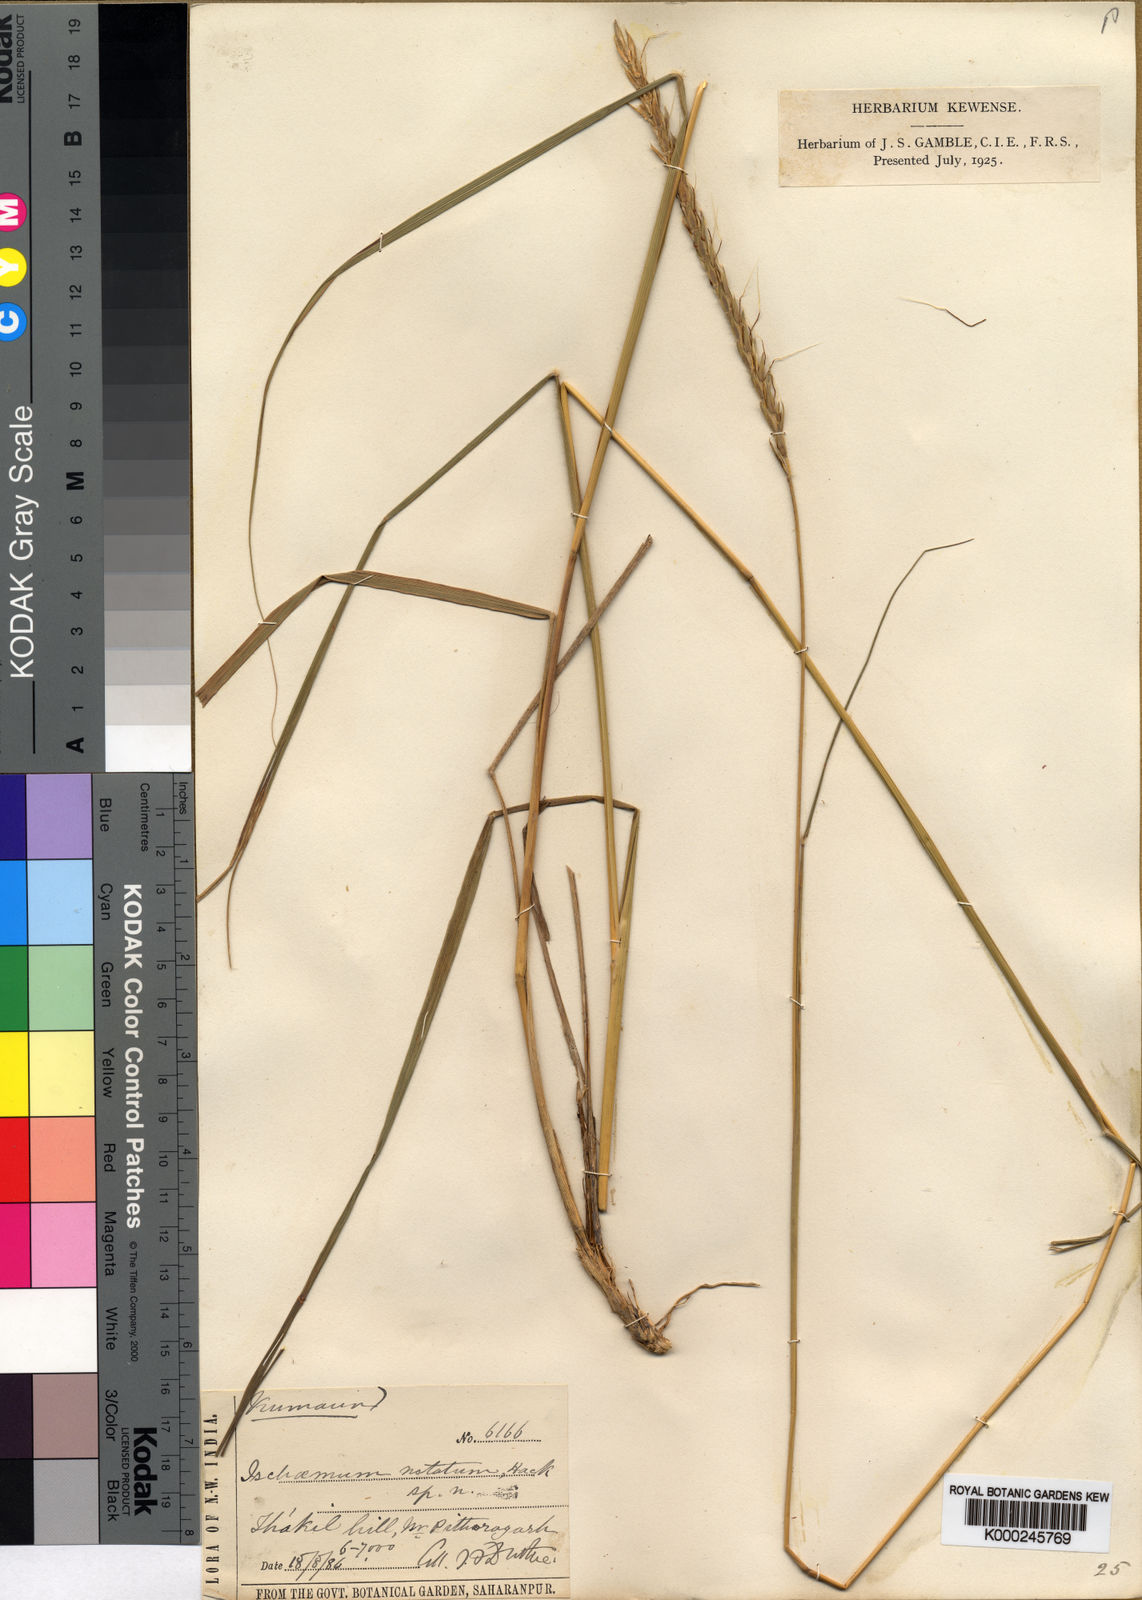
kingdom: Plantae
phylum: Tracheophyta
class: Liliopsida
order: Poales
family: Poaceae
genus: Sehima
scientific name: Sehima notata
